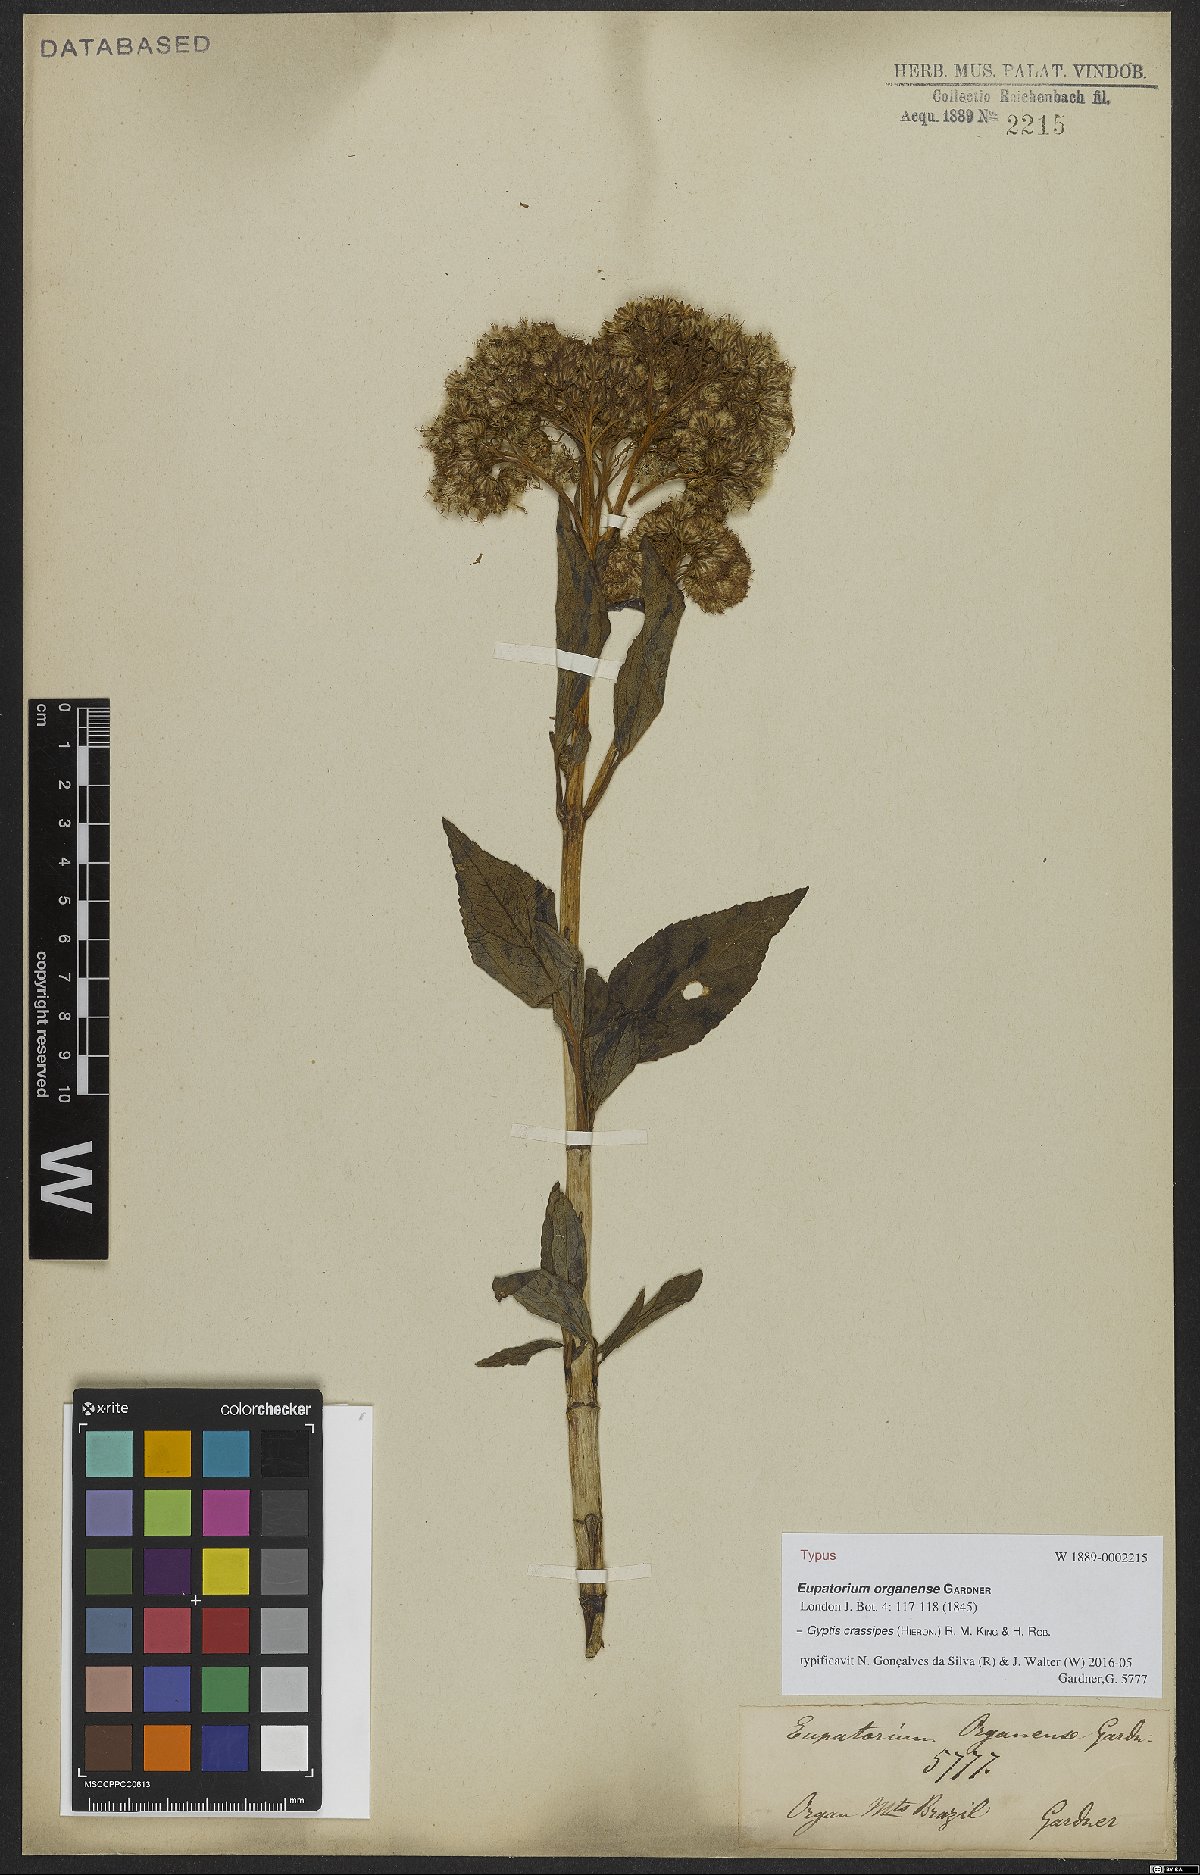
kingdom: Plantae
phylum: Tracheophyta
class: Magnoliopsida
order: Asterales
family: Asteraceae
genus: Gyptis
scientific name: Gyptis crassipes
